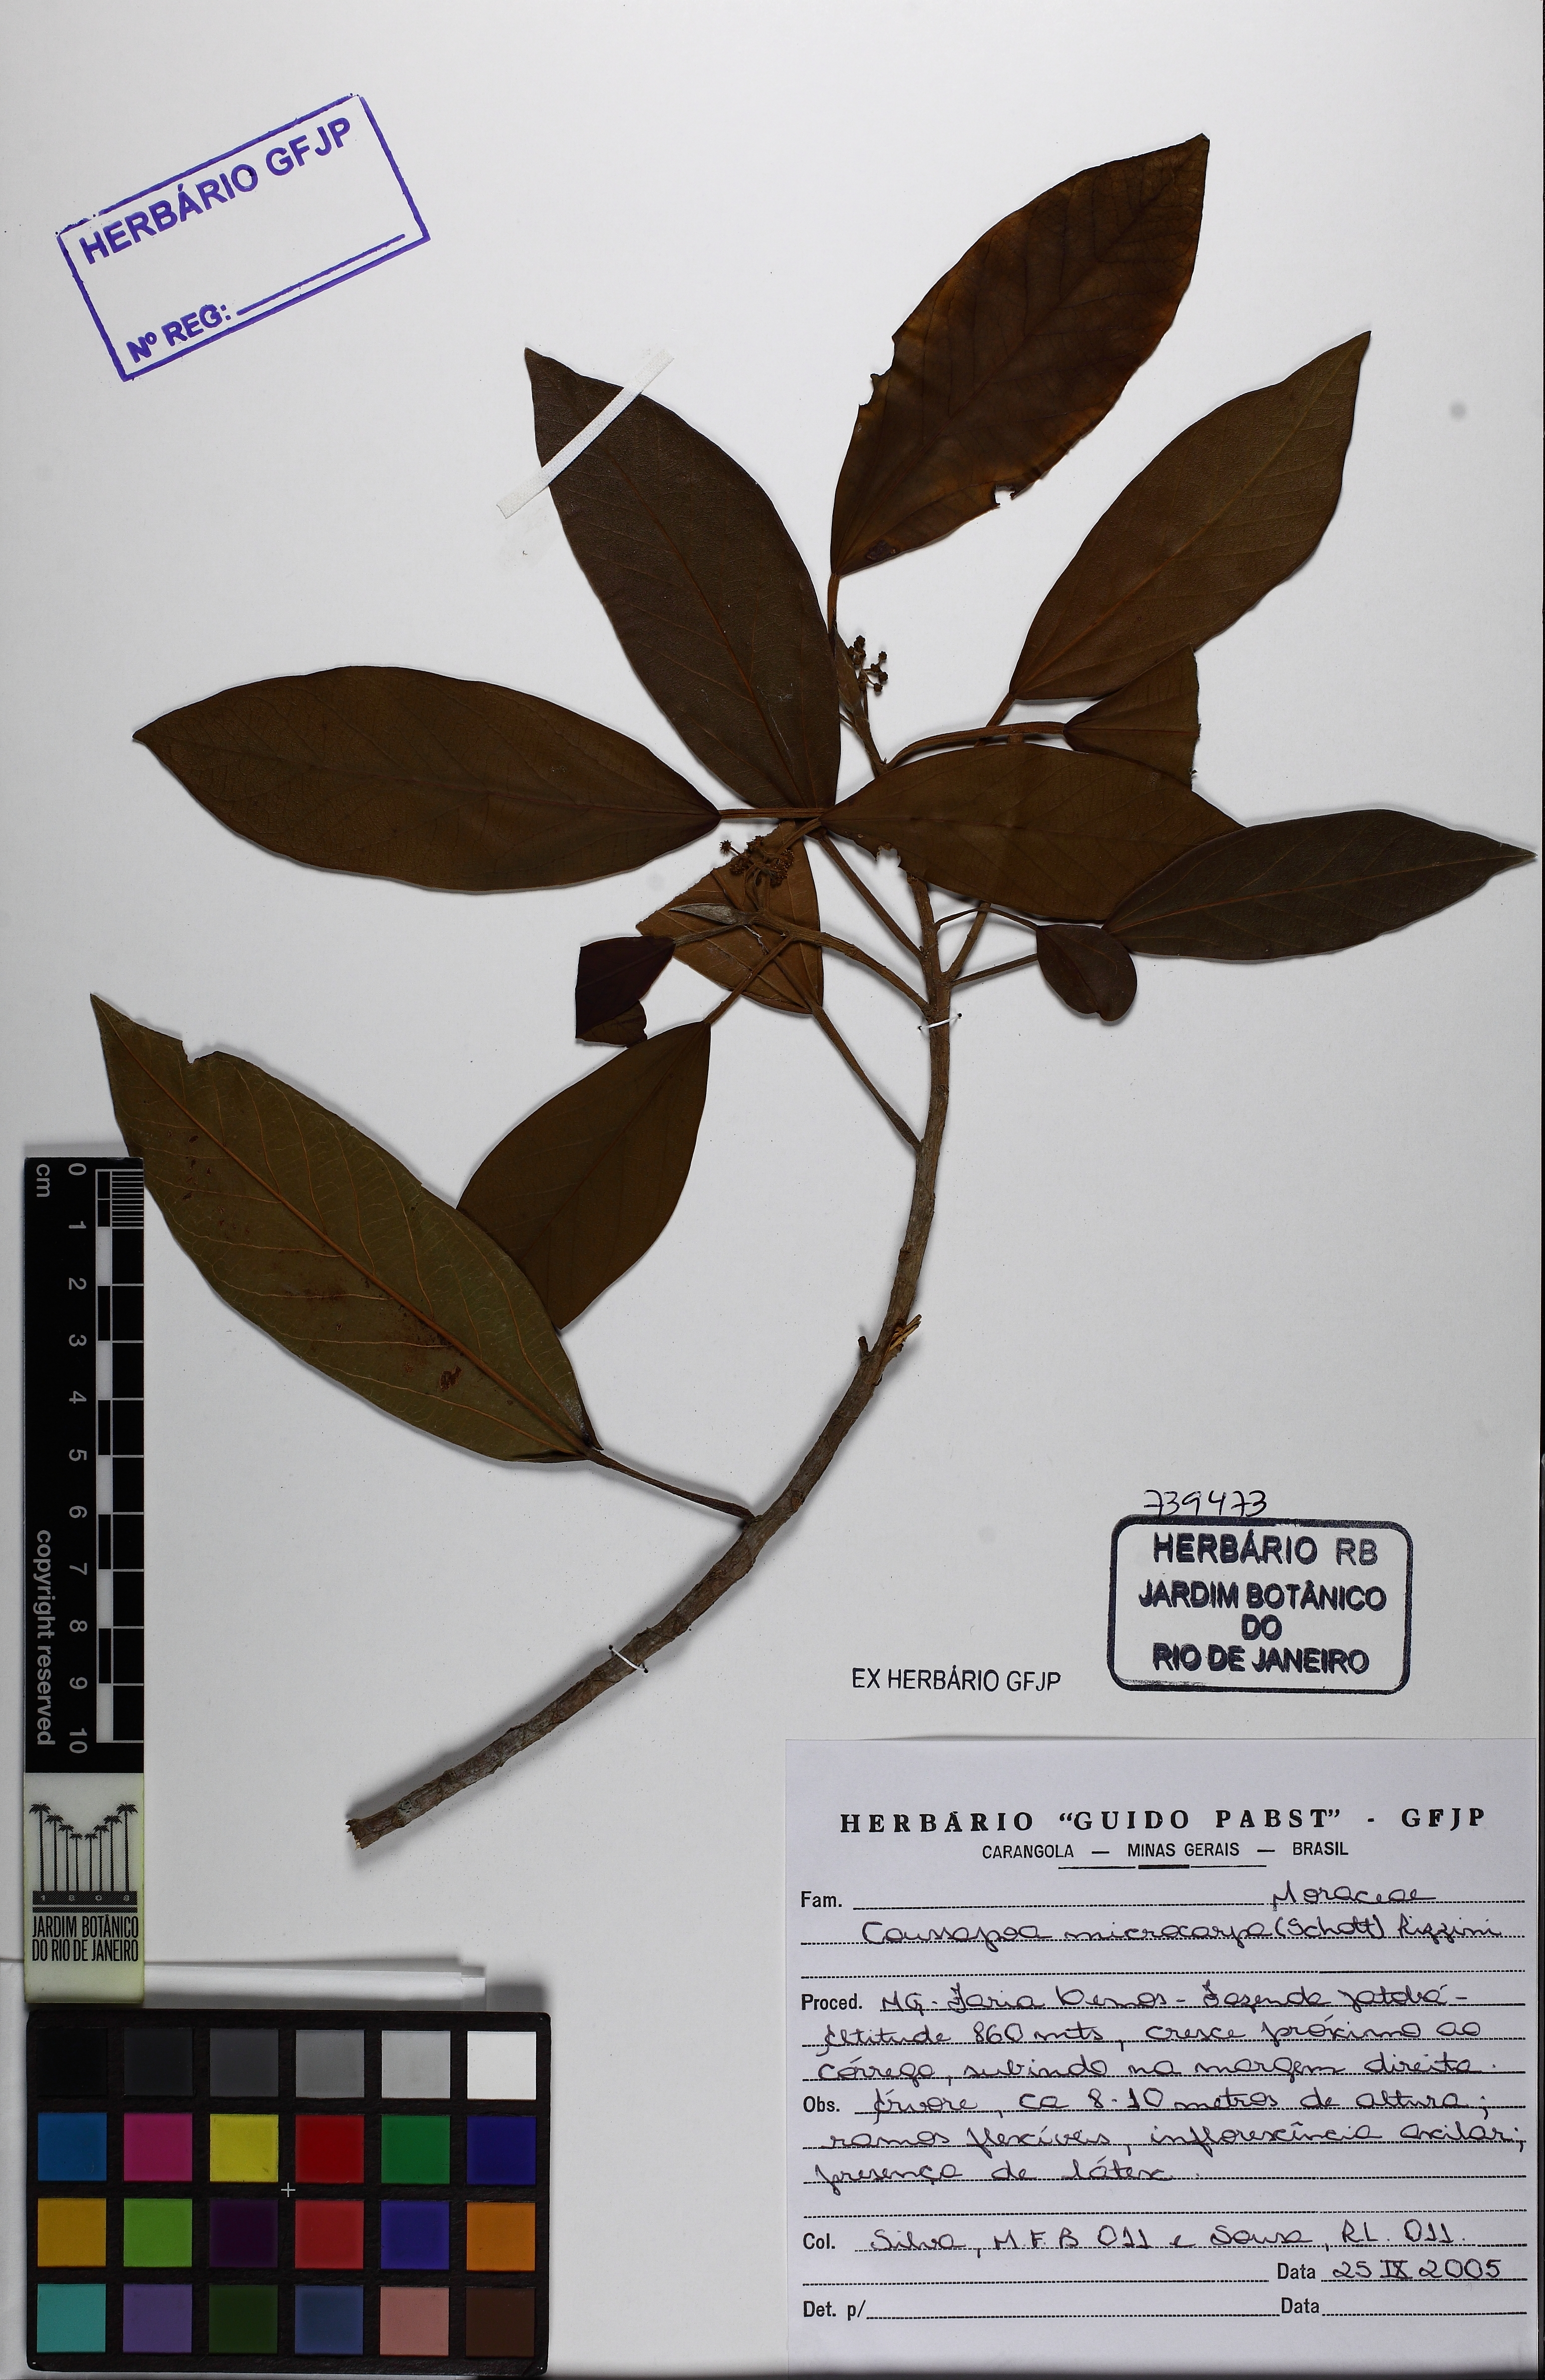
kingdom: Plantae
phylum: Tracheophyta
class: Magnoliopsida
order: Rosales
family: Urticaceae
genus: Coussapoa
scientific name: Coussapoa microcarpa
